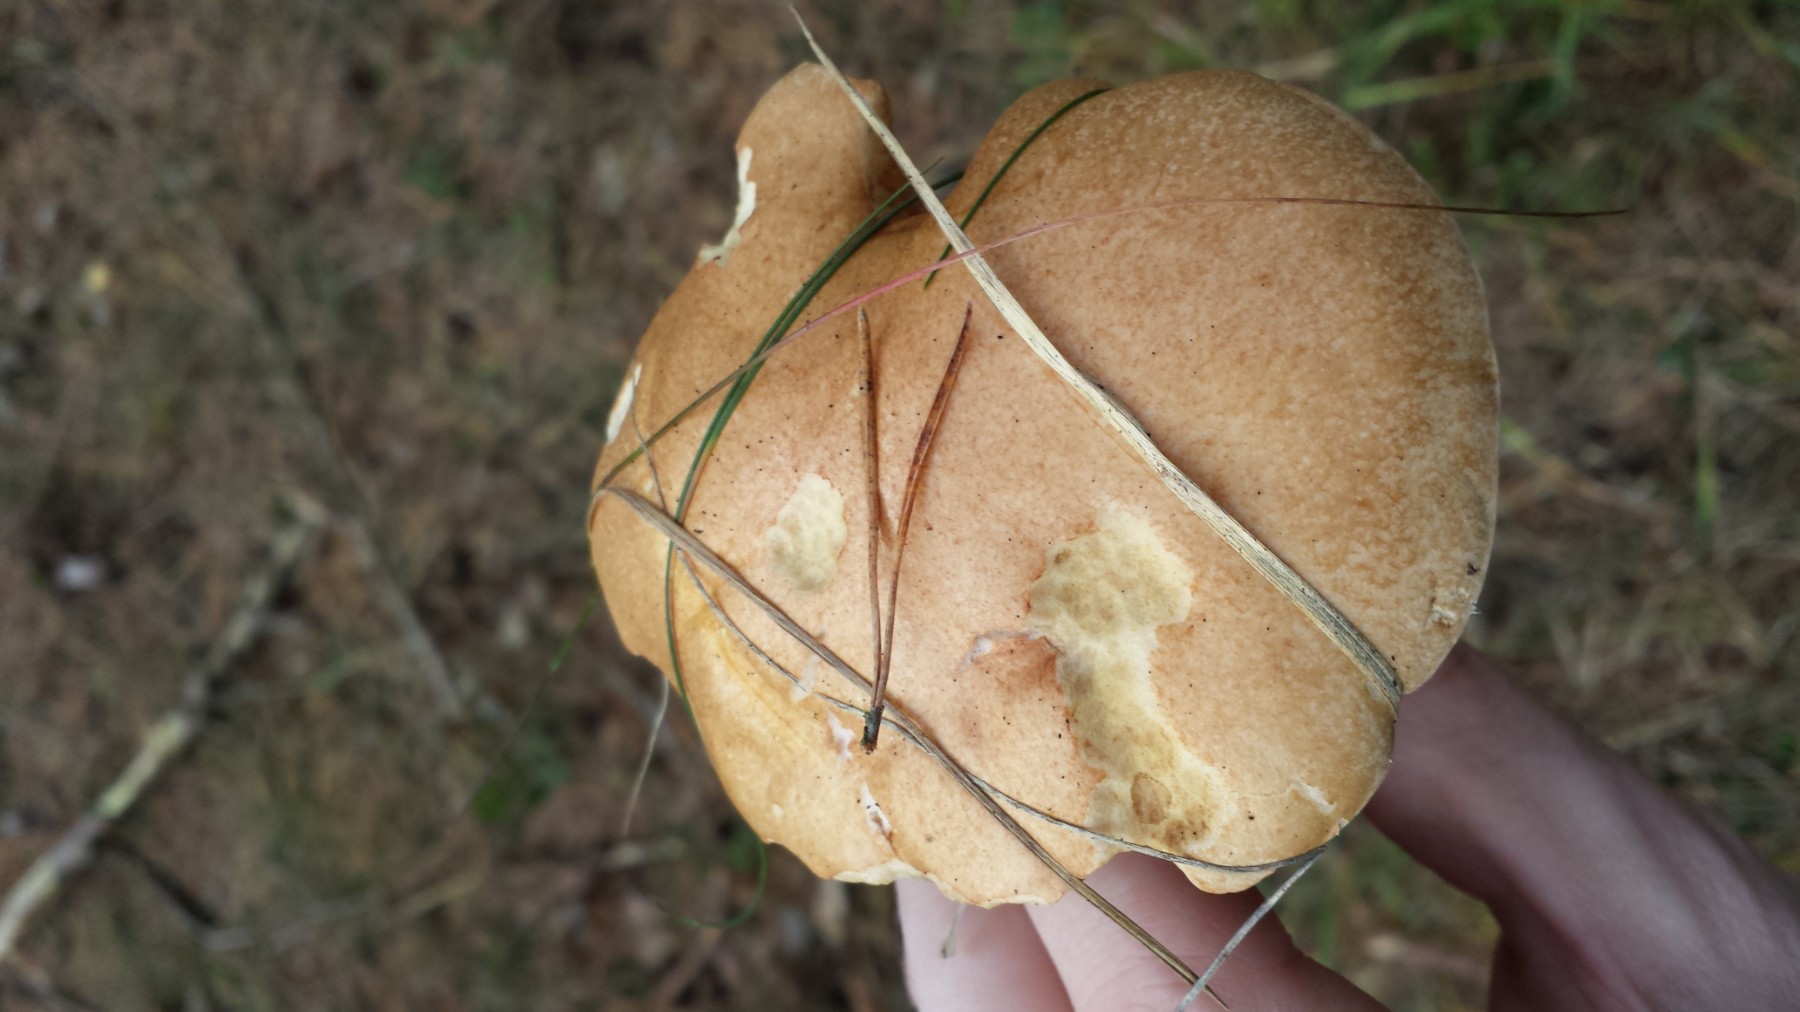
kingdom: Fungi
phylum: Basidiomycota
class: Agaricomycetes
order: Boletales
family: Suillaceae
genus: Suillus
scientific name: Suillus bovinus
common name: grovporet slimrørhat
